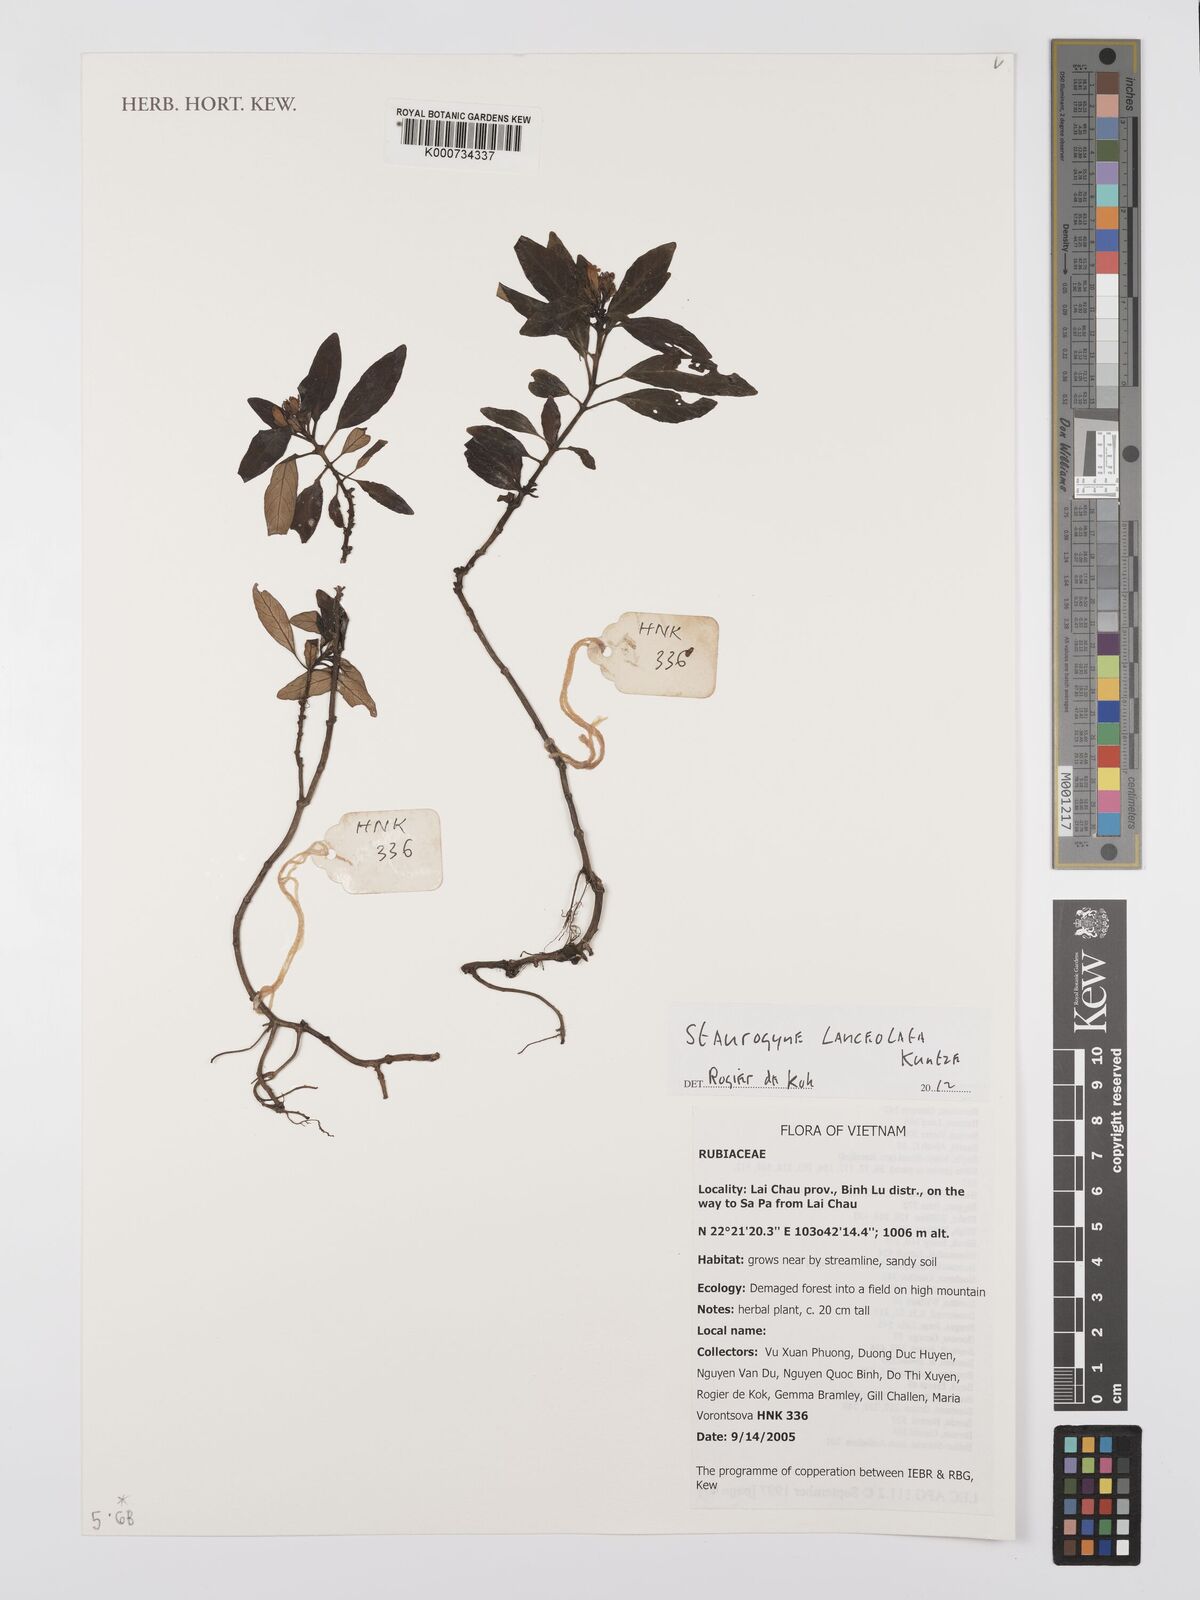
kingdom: Plantae
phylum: Tracheophyta
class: Magnoliopsida
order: Lamiales
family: Acanthaceae
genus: Staurogyne
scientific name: Staurogyne lanceolata
